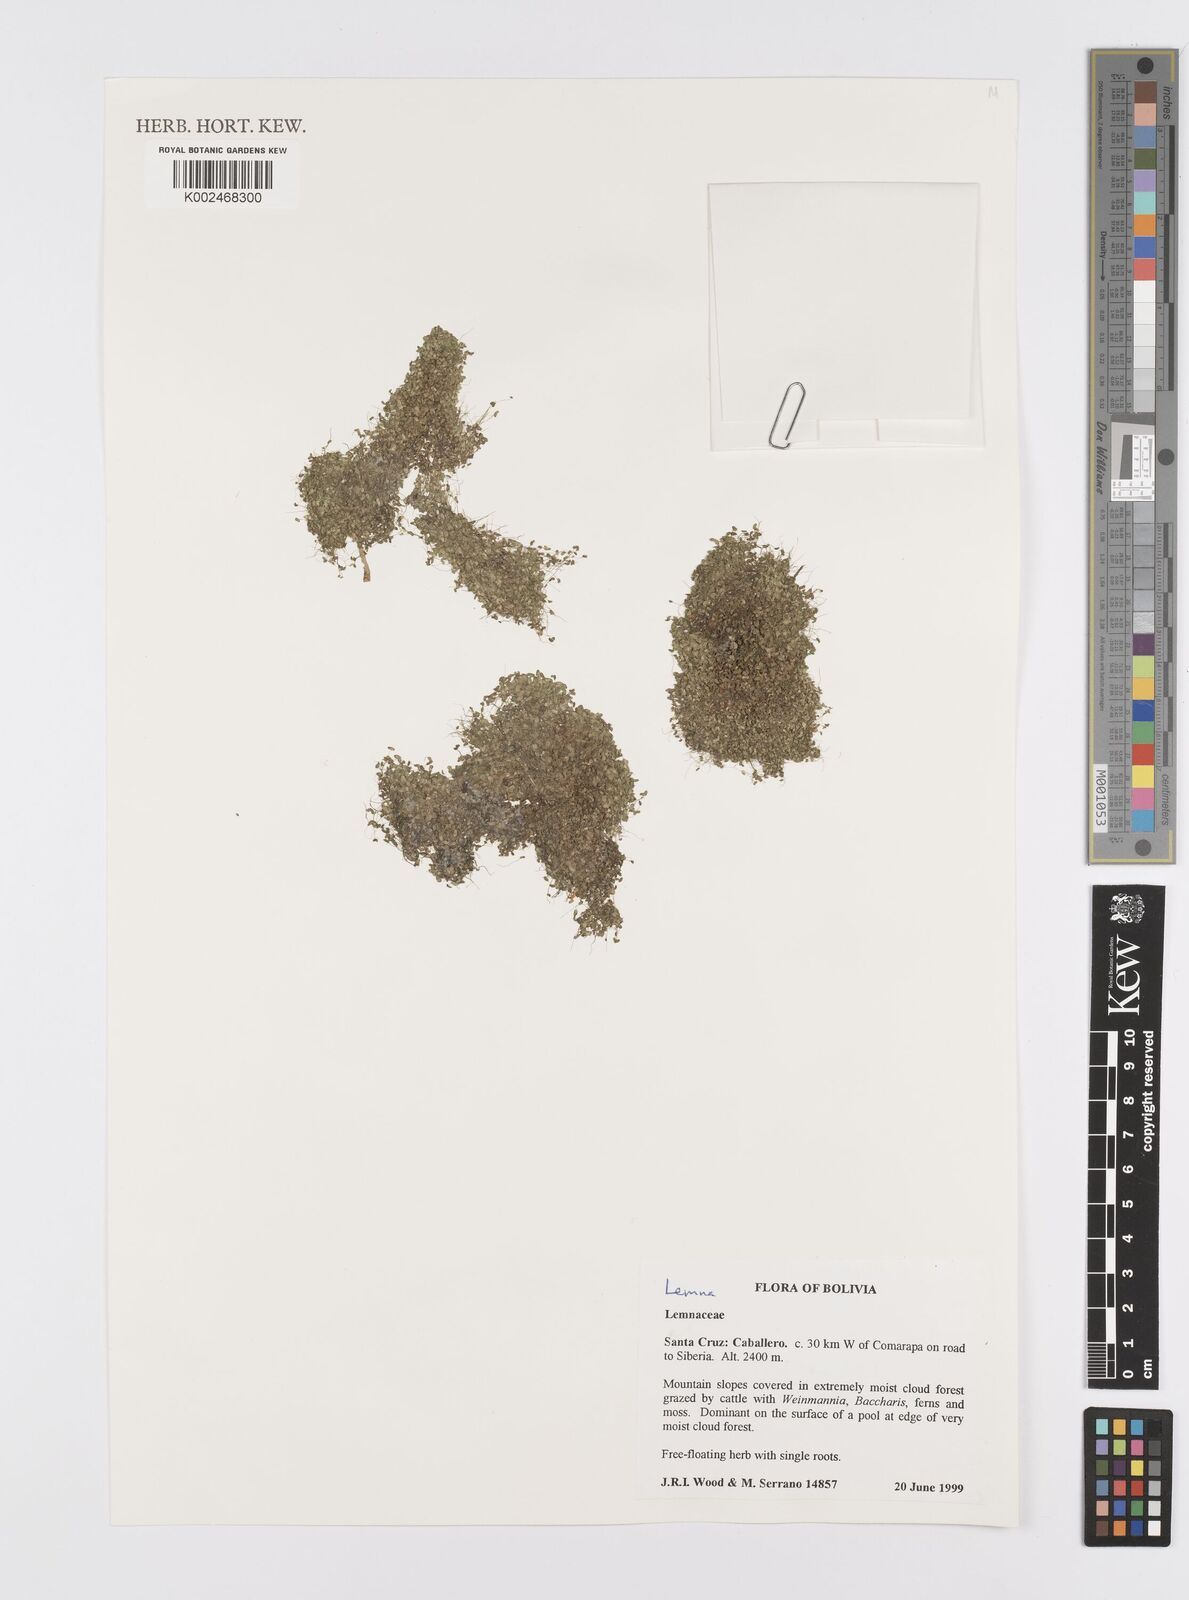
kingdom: Plantae
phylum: Tracheophyta
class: Liliopsida
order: Alismatales
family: Araceae
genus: Lemna
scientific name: Lemna
